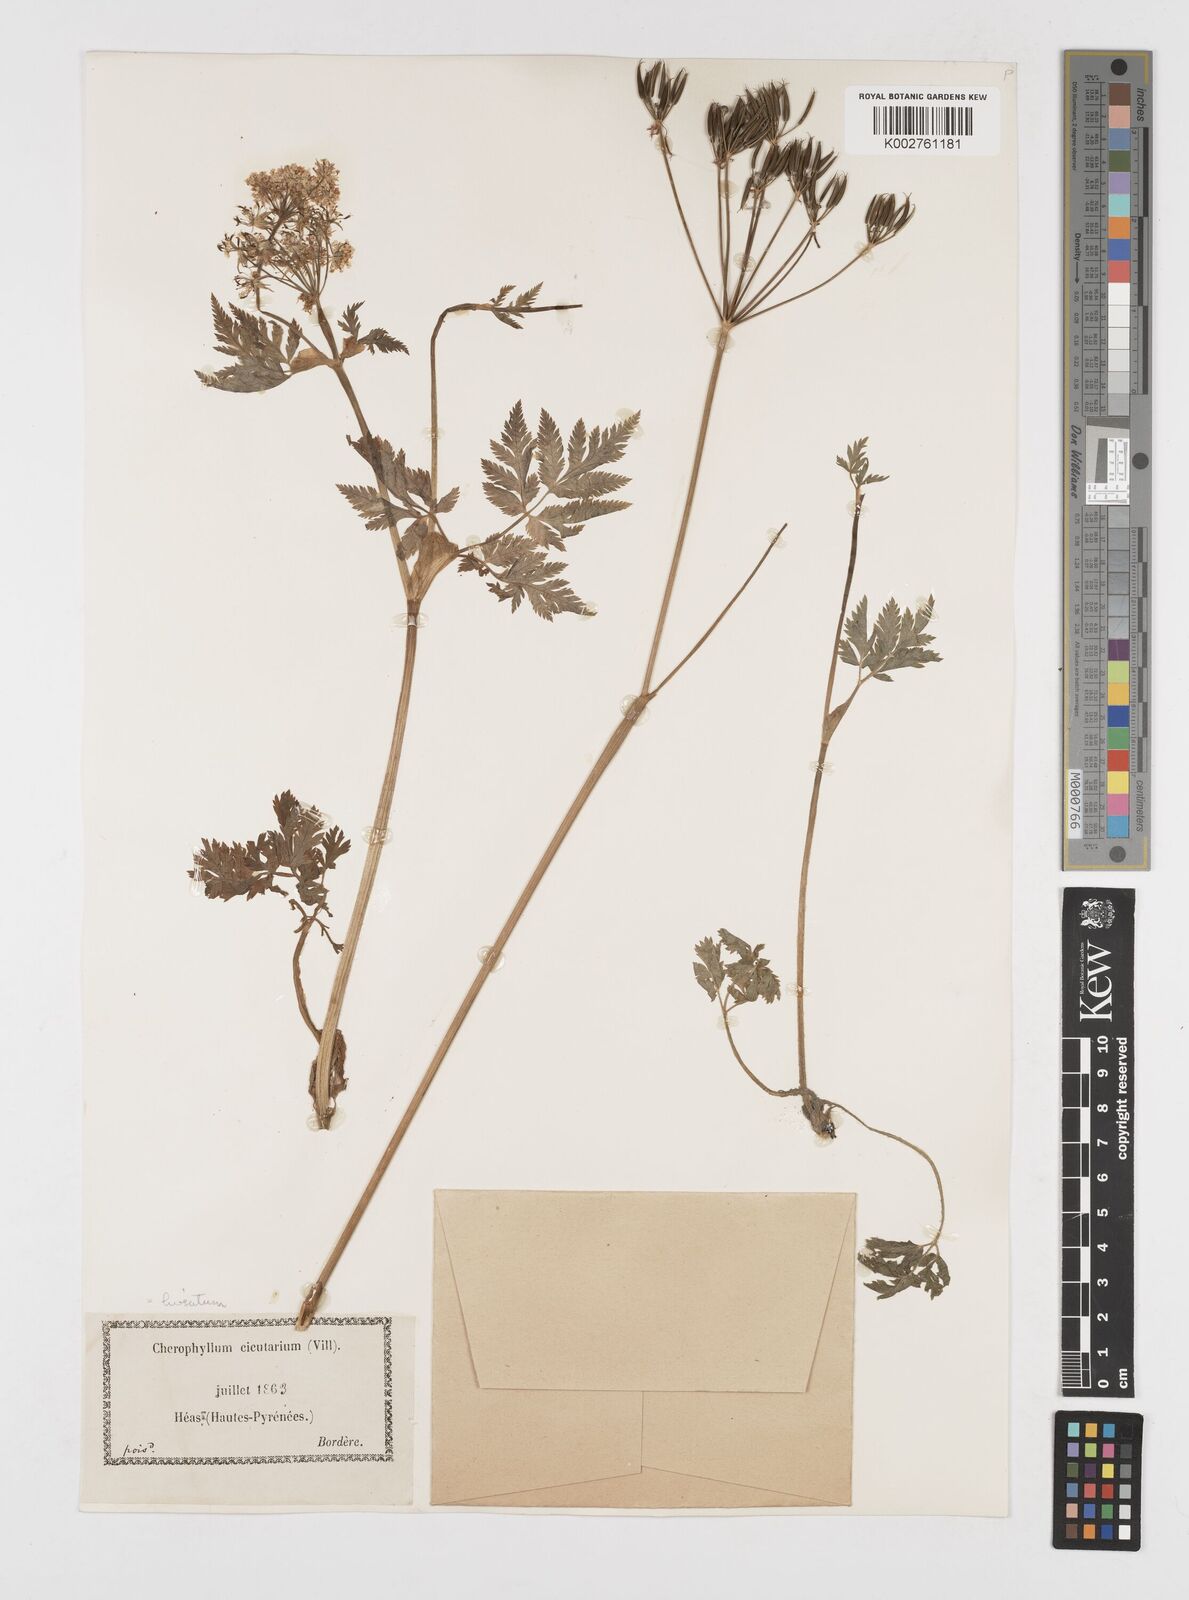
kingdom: Plantae
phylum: Tracheophyta
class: Magnoliopsida
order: Apiales
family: Apiaceae
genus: Chaerophyllum
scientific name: Chaerophyllum hirsutum
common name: Hairy chervil
